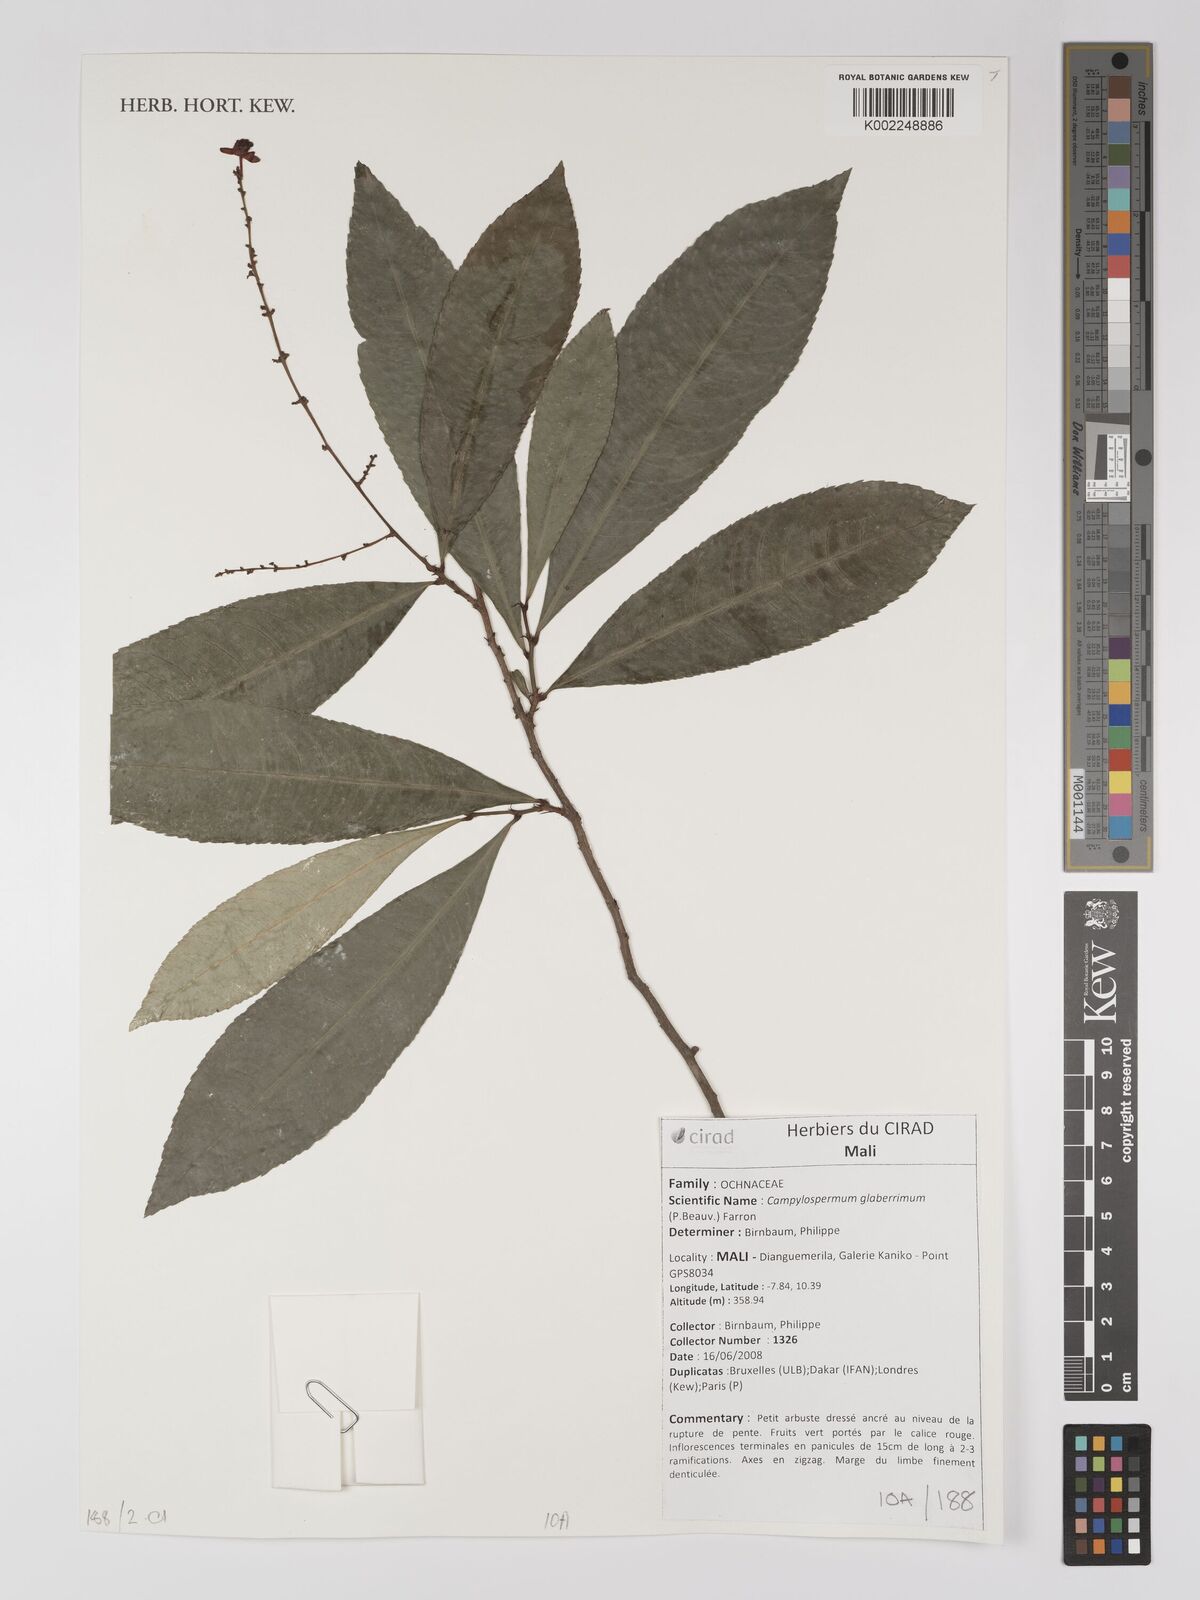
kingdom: Plantae
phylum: Tracheophyta
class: Magnoliopsida
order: Malpighiales
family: Ochnaceae
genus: Campylospermum
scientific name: Campylospermum glaberrimum
